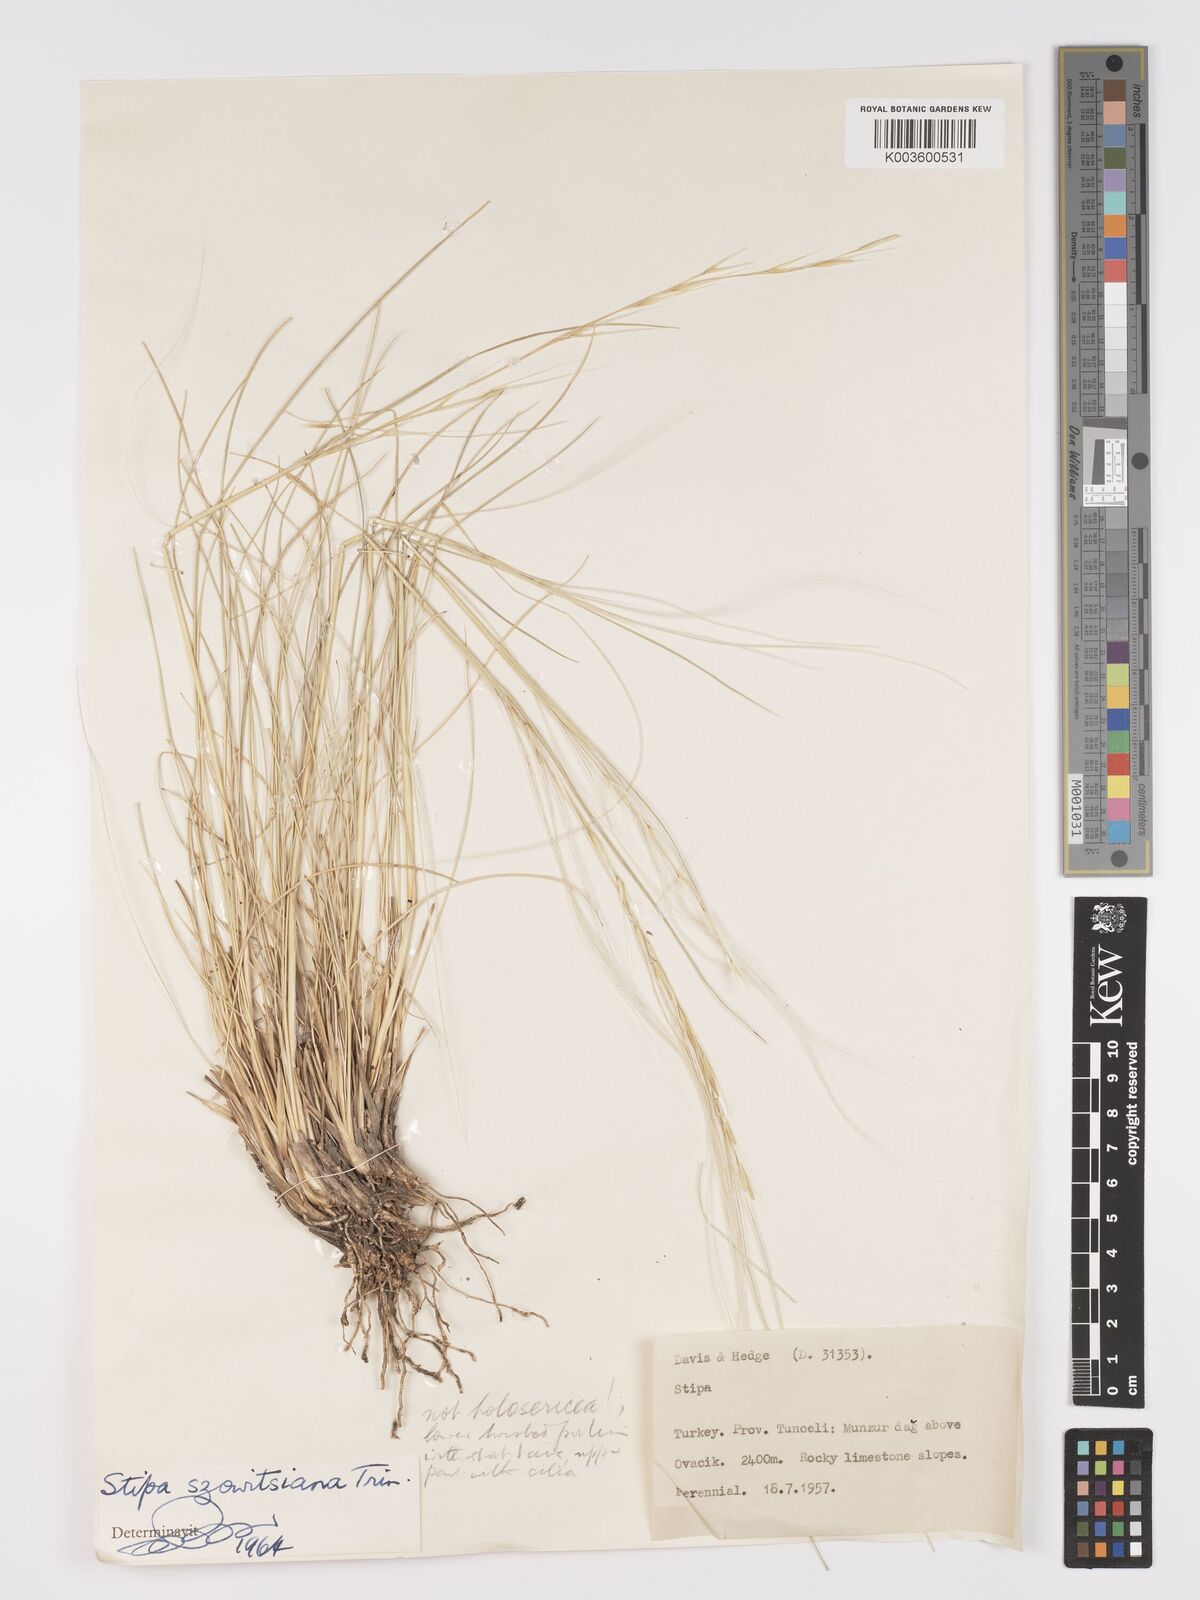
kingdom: Plantae
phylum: Tracheophyta
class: Liliopsida
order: Poales
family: Poaceae
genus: Stipa
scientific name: Stipa barbata
